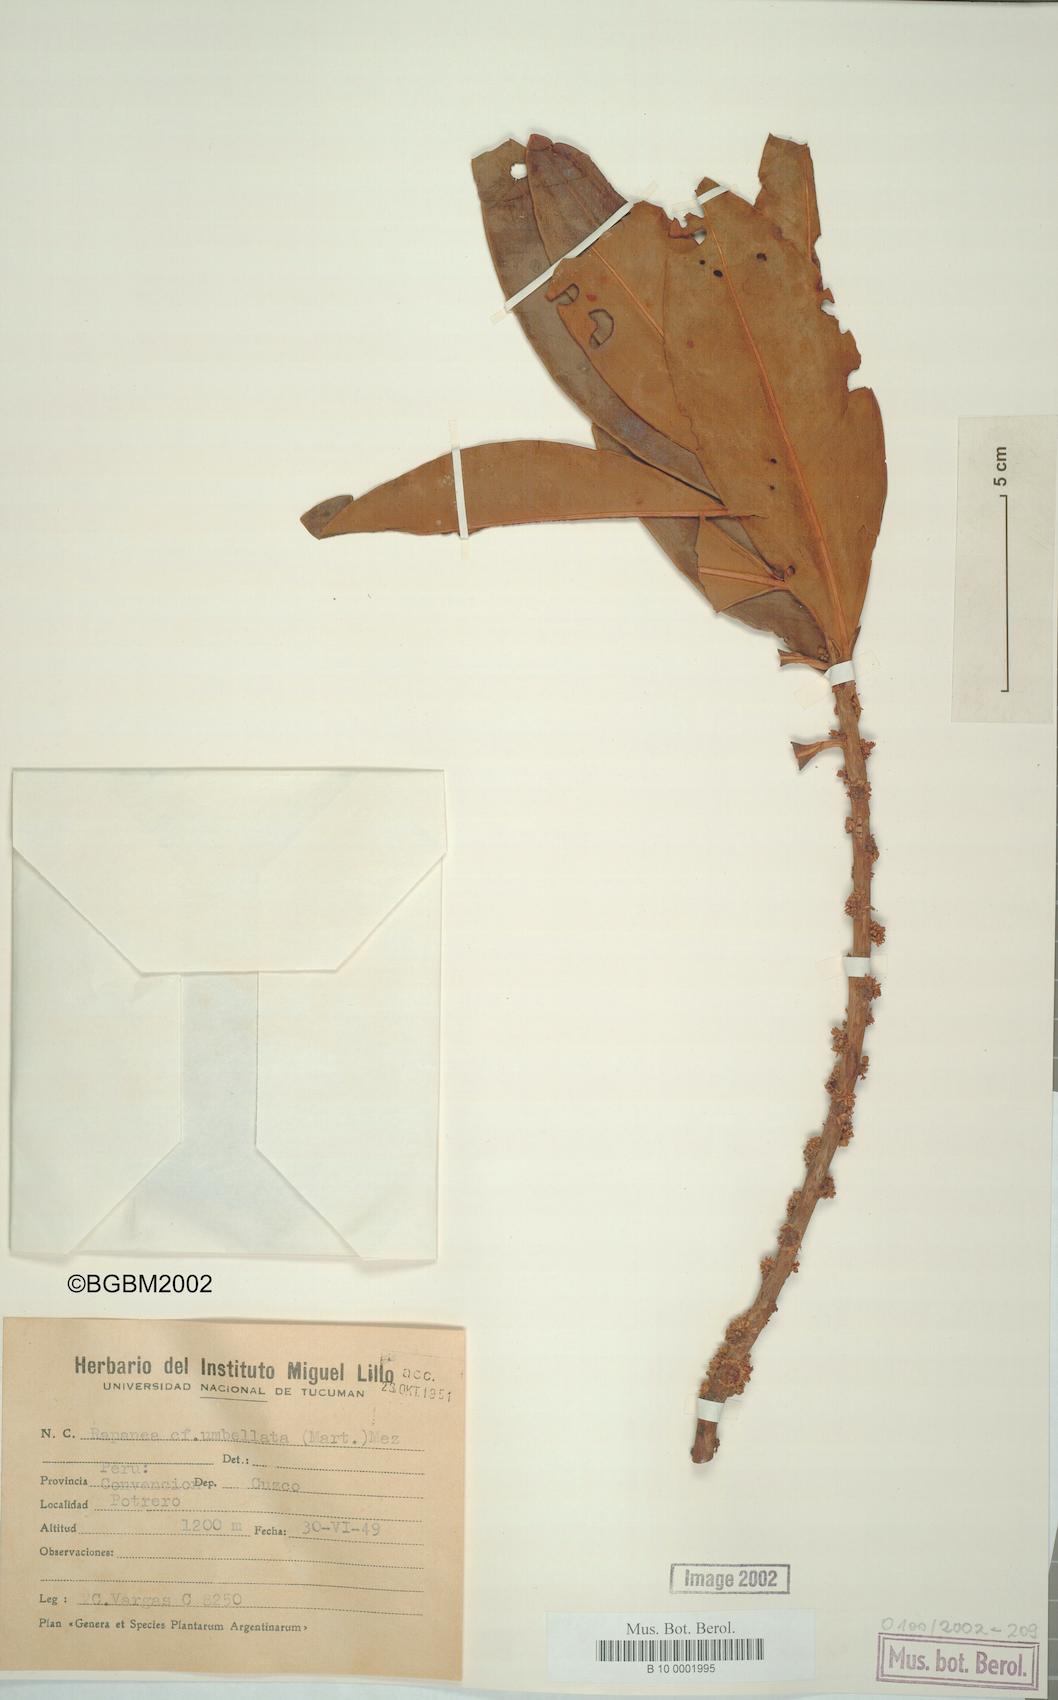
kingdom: Plantae
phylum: Tracheophyta
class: Magnoliopsida
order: Ericales
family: Primulaceae
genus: Myrsine
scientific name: Myrsine umbellata
